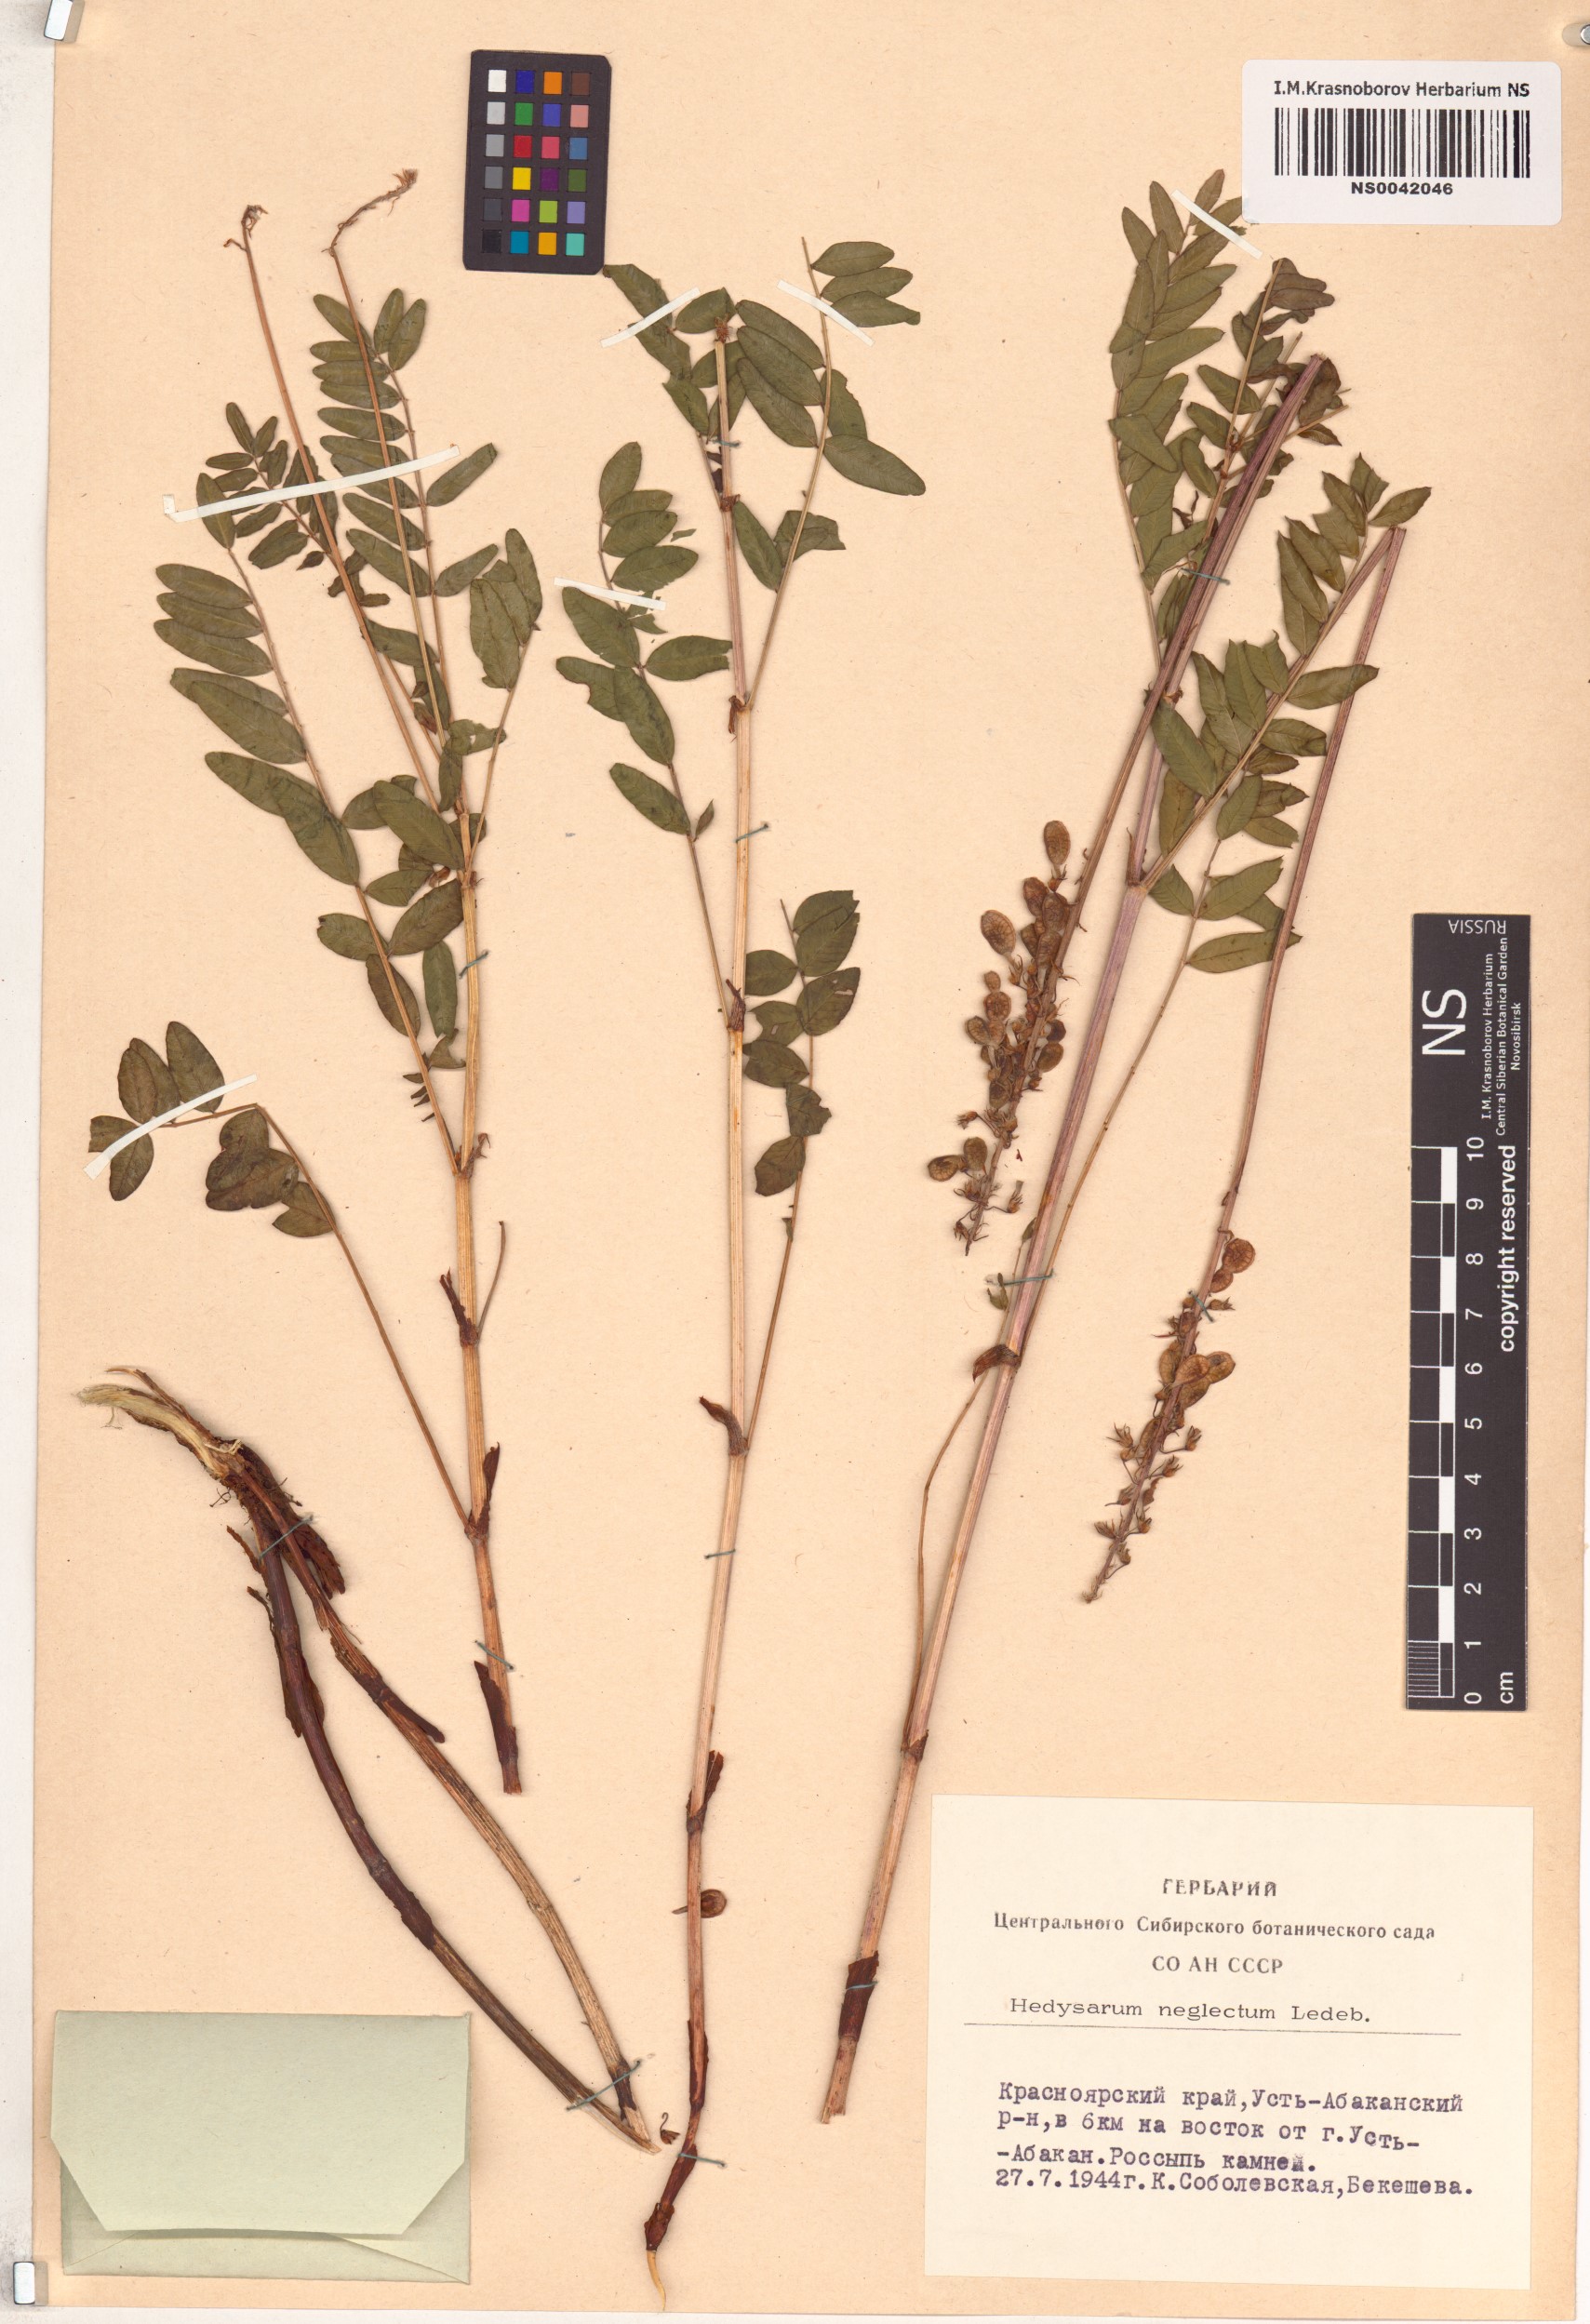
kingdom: Plantae
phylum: Tracheophyta
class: Magnoliopsida
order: Fabales
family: Fabaceae
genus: Hedysarum
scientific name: Hedysarum neglectum
